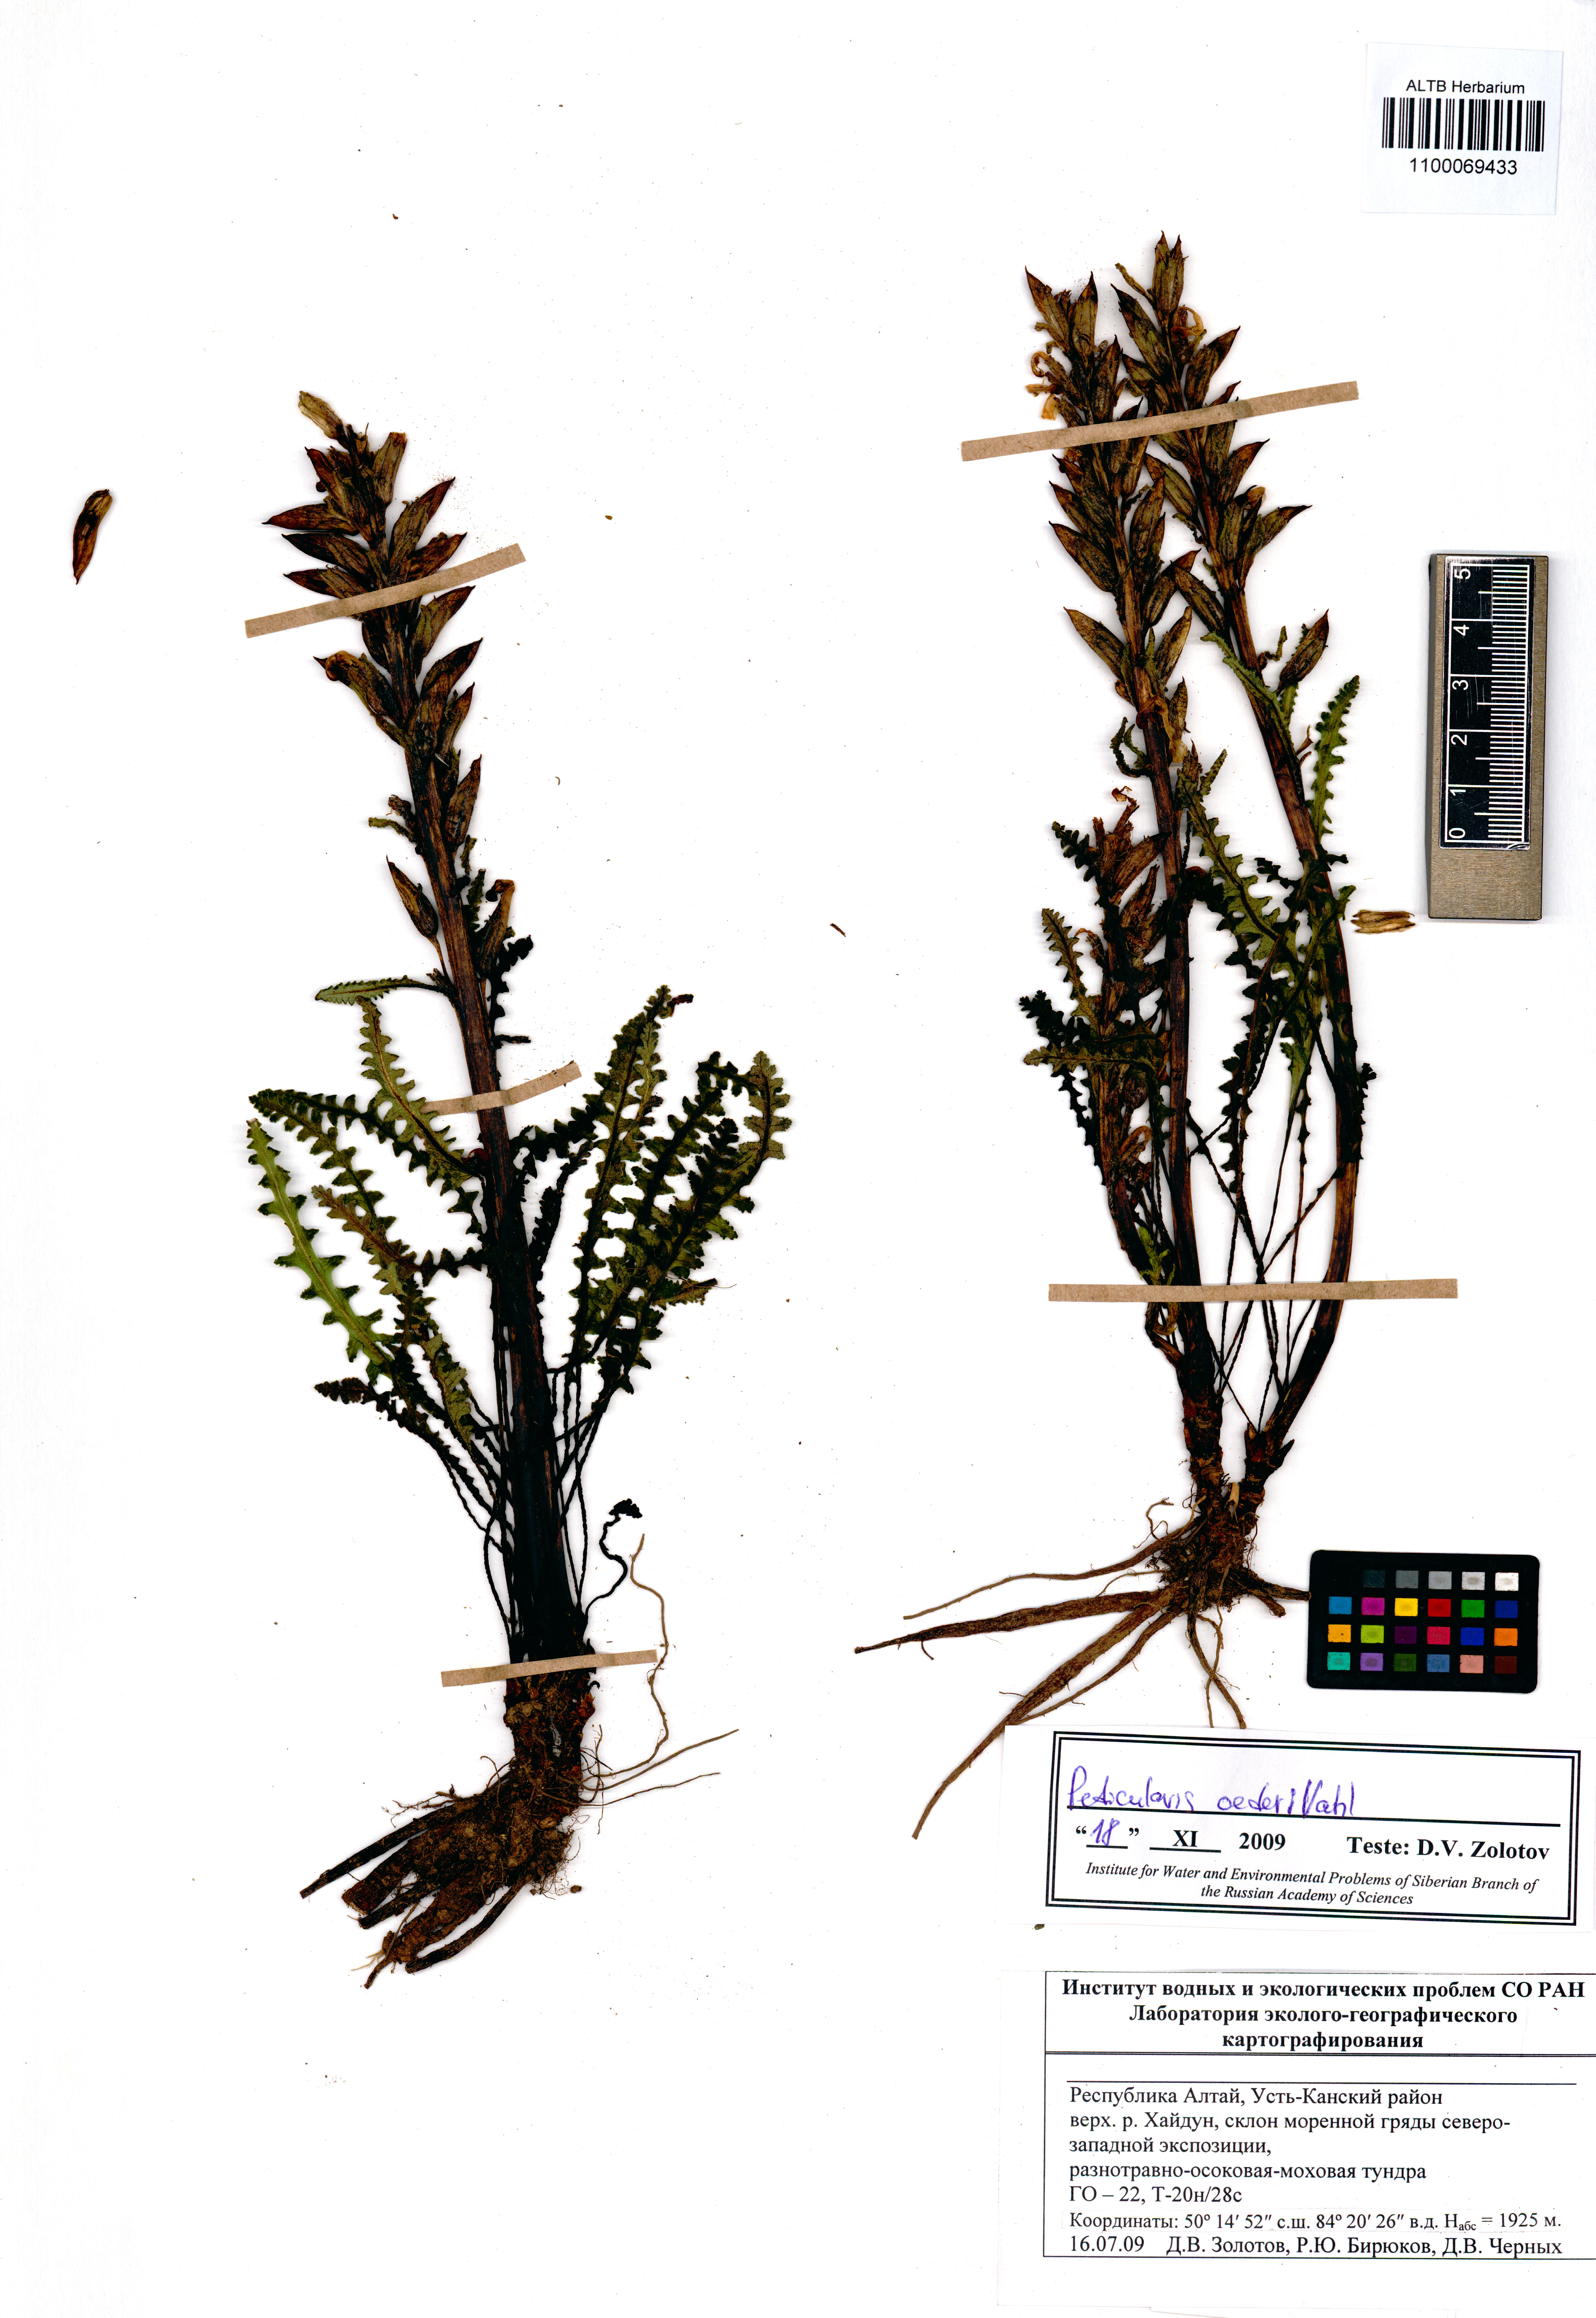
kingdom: Plantae
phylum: Tracheophyta
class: Magnoliopsida
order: Lamiales
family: Orobanchaceae
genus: Pedicularis
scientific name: Pedicularis oederi
